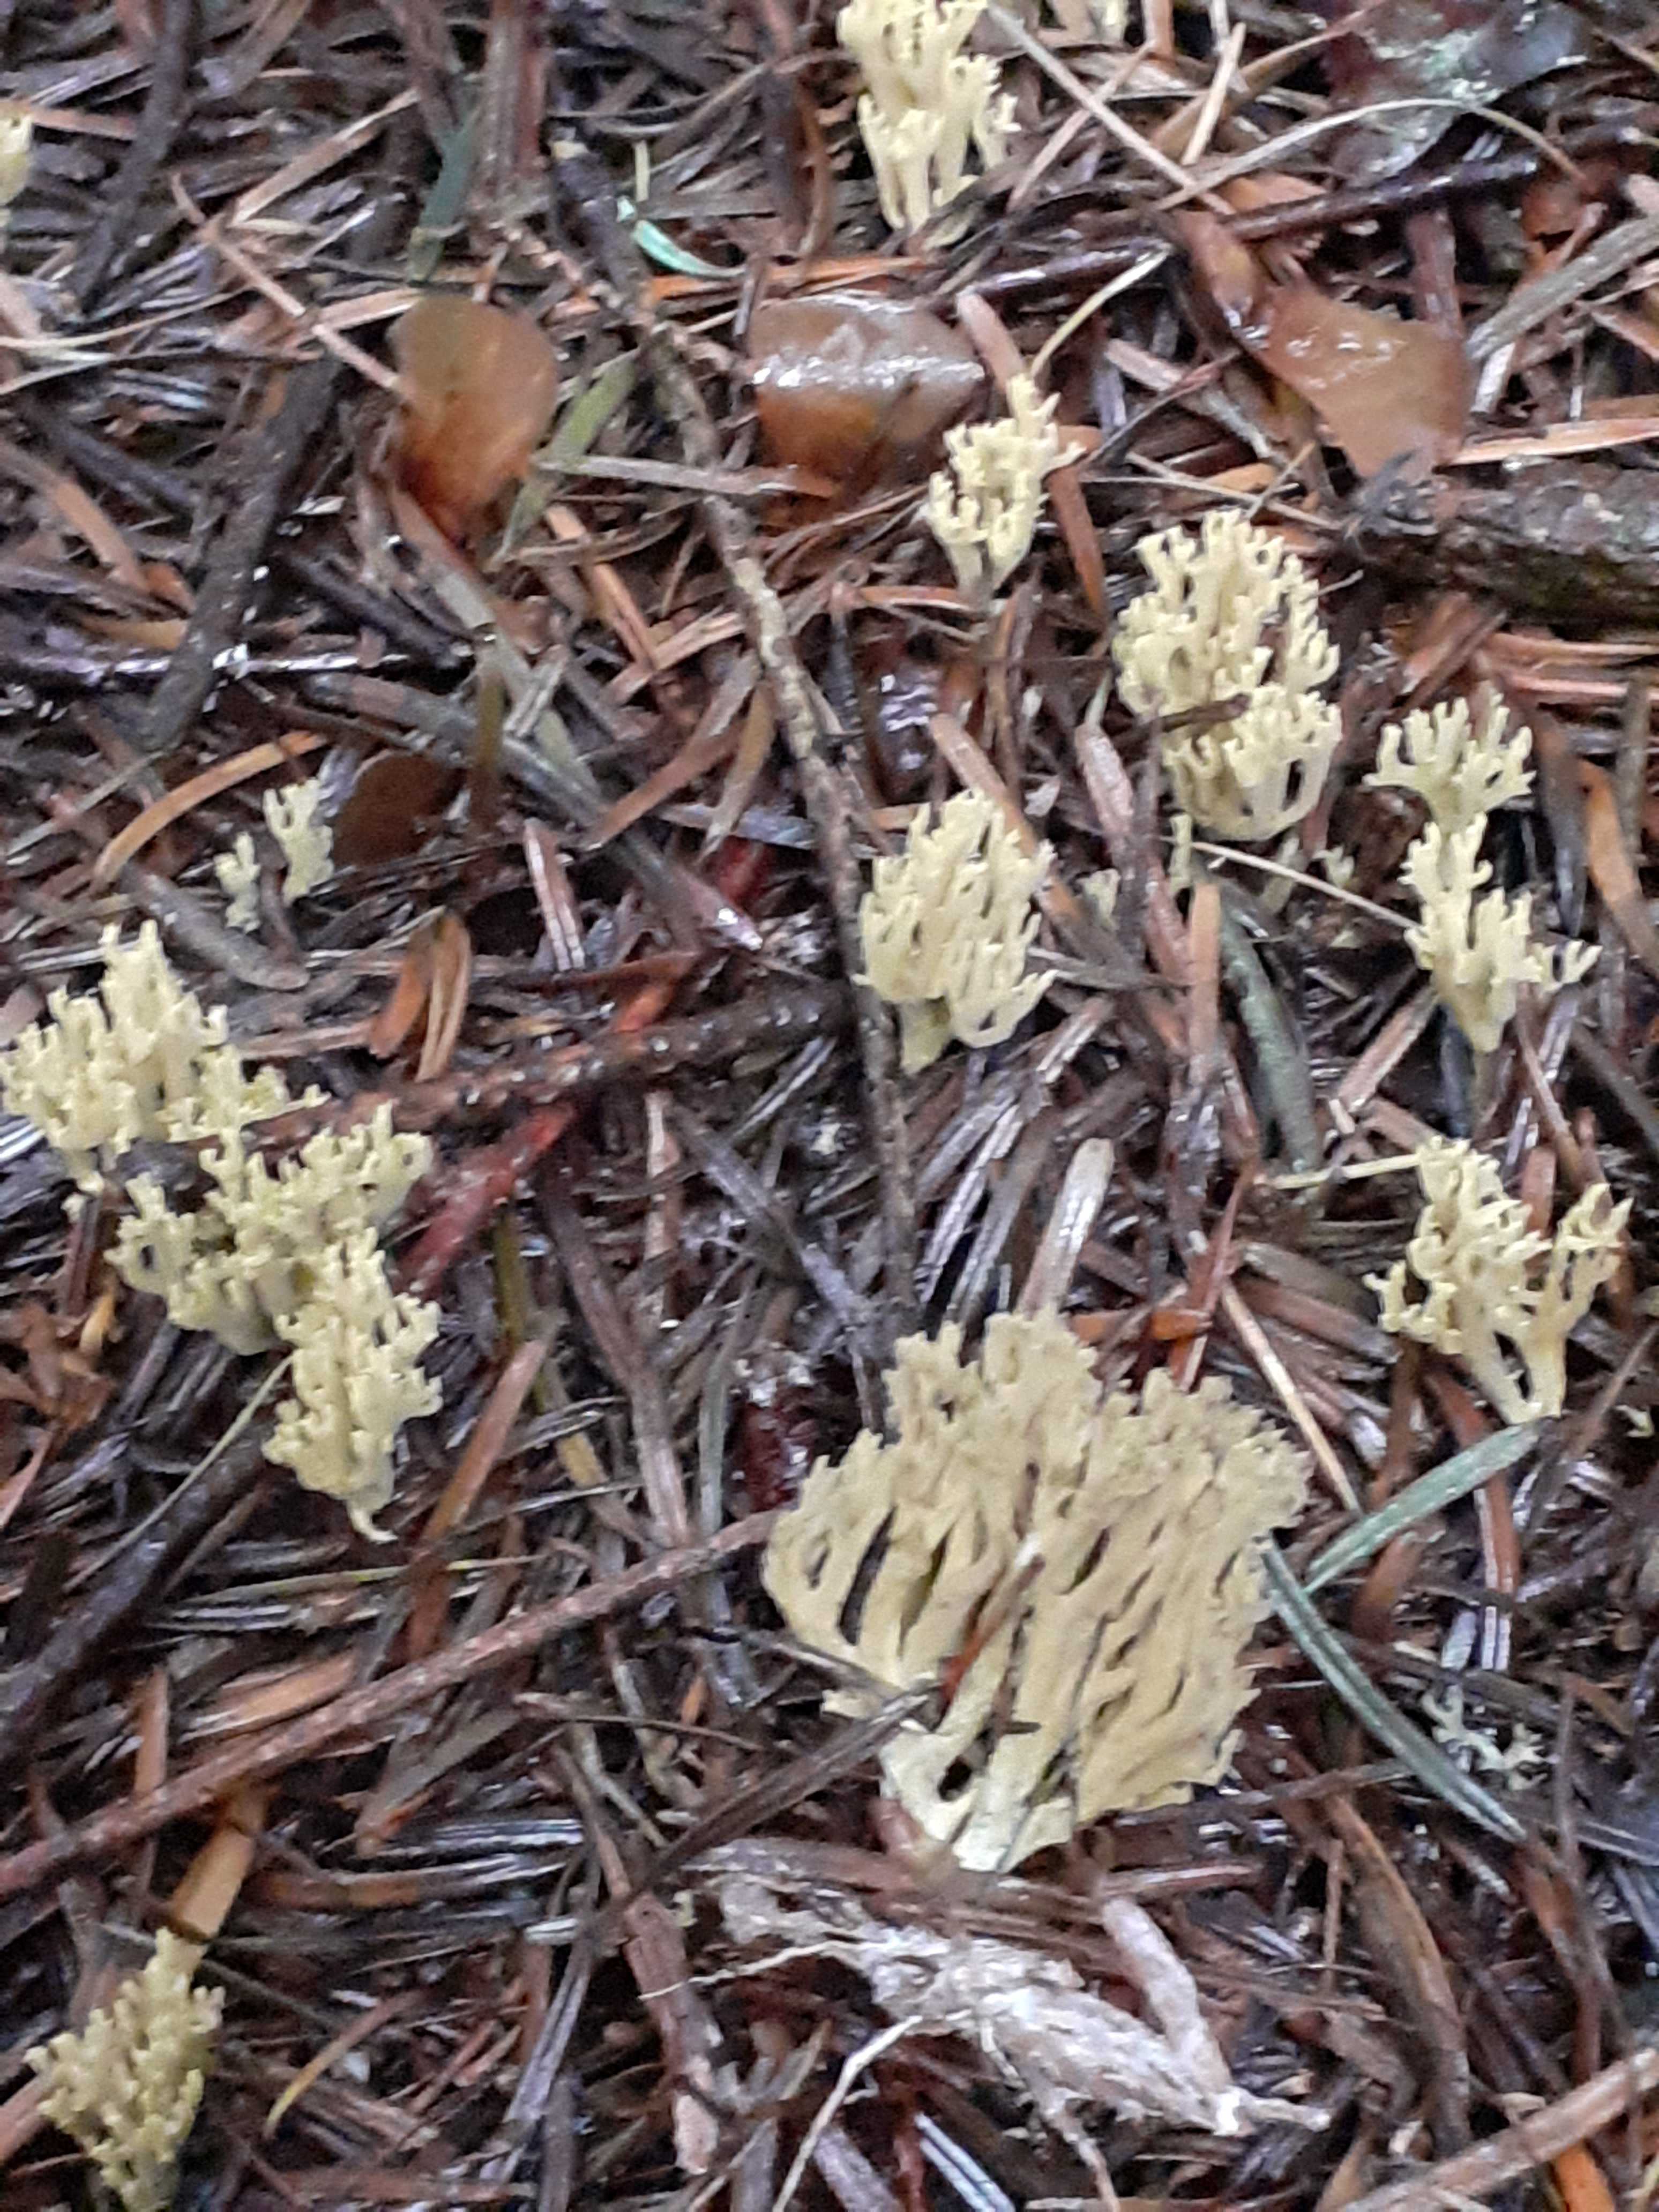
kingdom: Fungi
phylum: Basidiomycota
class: Agaricomycetes
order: Gomphales
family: Gomphaceae
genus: Phaeoclavulina
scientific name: Phaeoclavulina abietina
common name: gulgrøn koralsvamp
